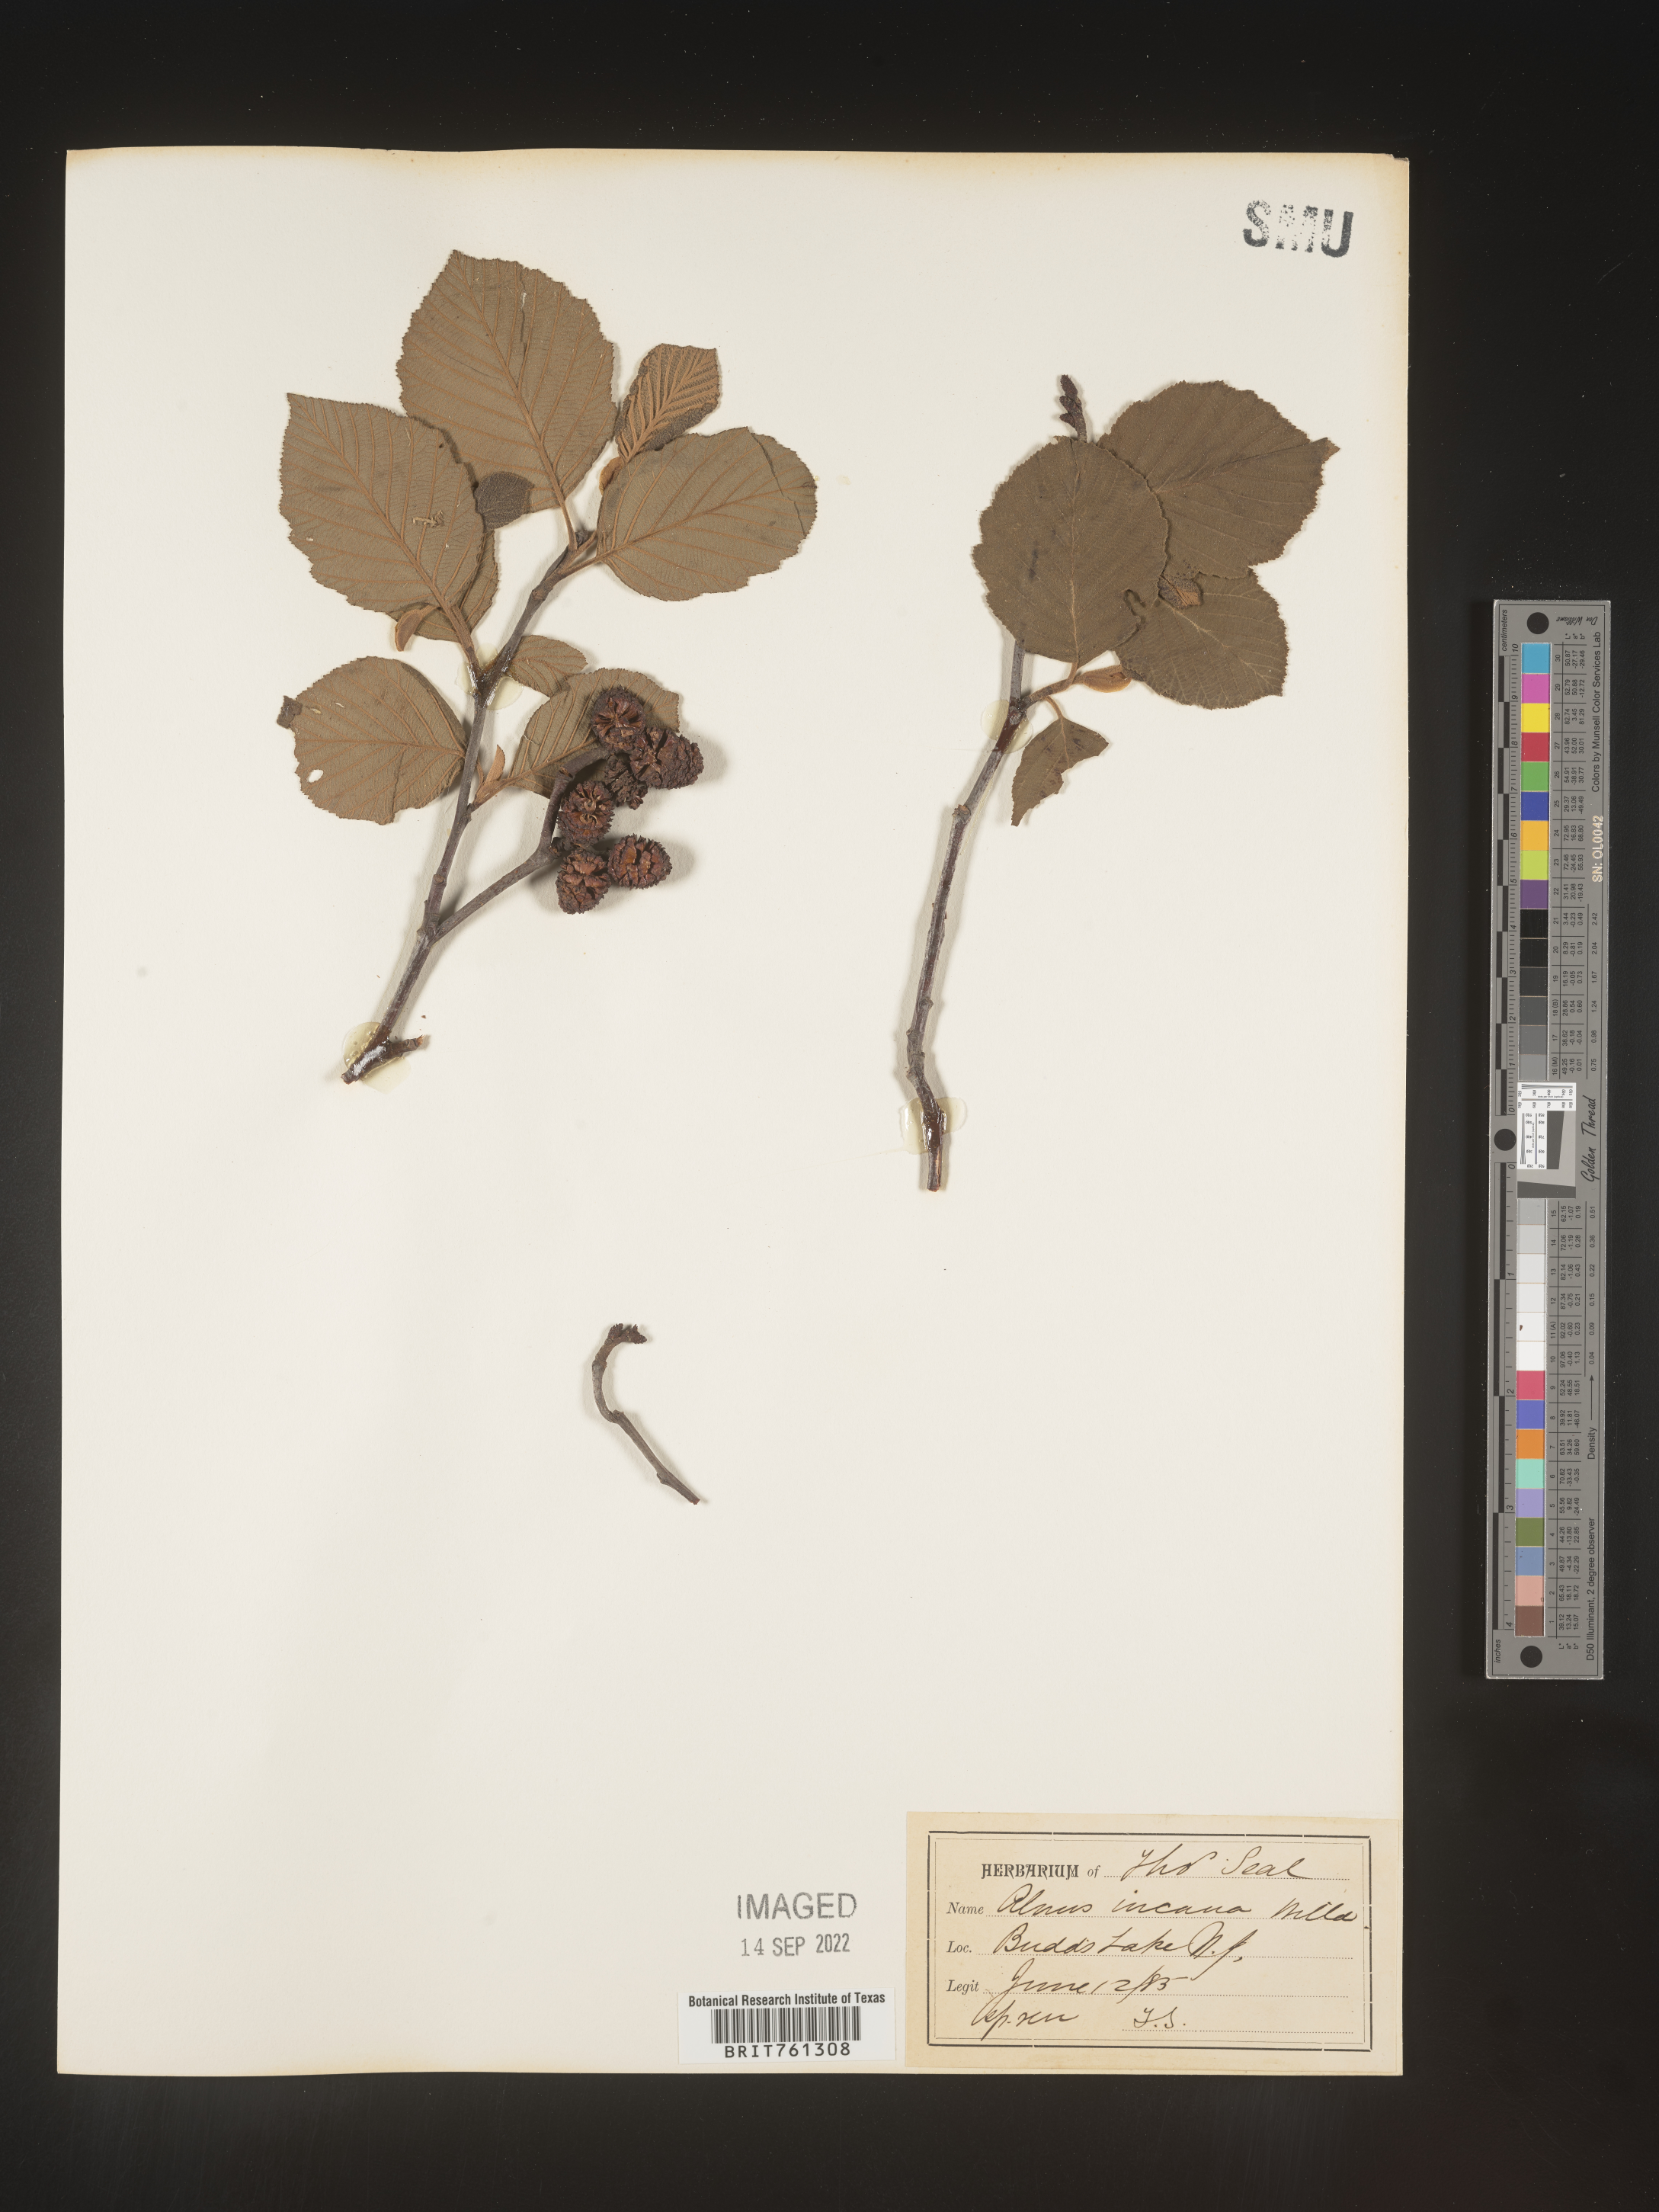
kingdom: Plantae
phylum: Tracheophyta
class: Magnoliopsida
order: Fagales
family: Betulaceae
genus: Alnus
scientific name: Alnus incana
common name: Grey alder
